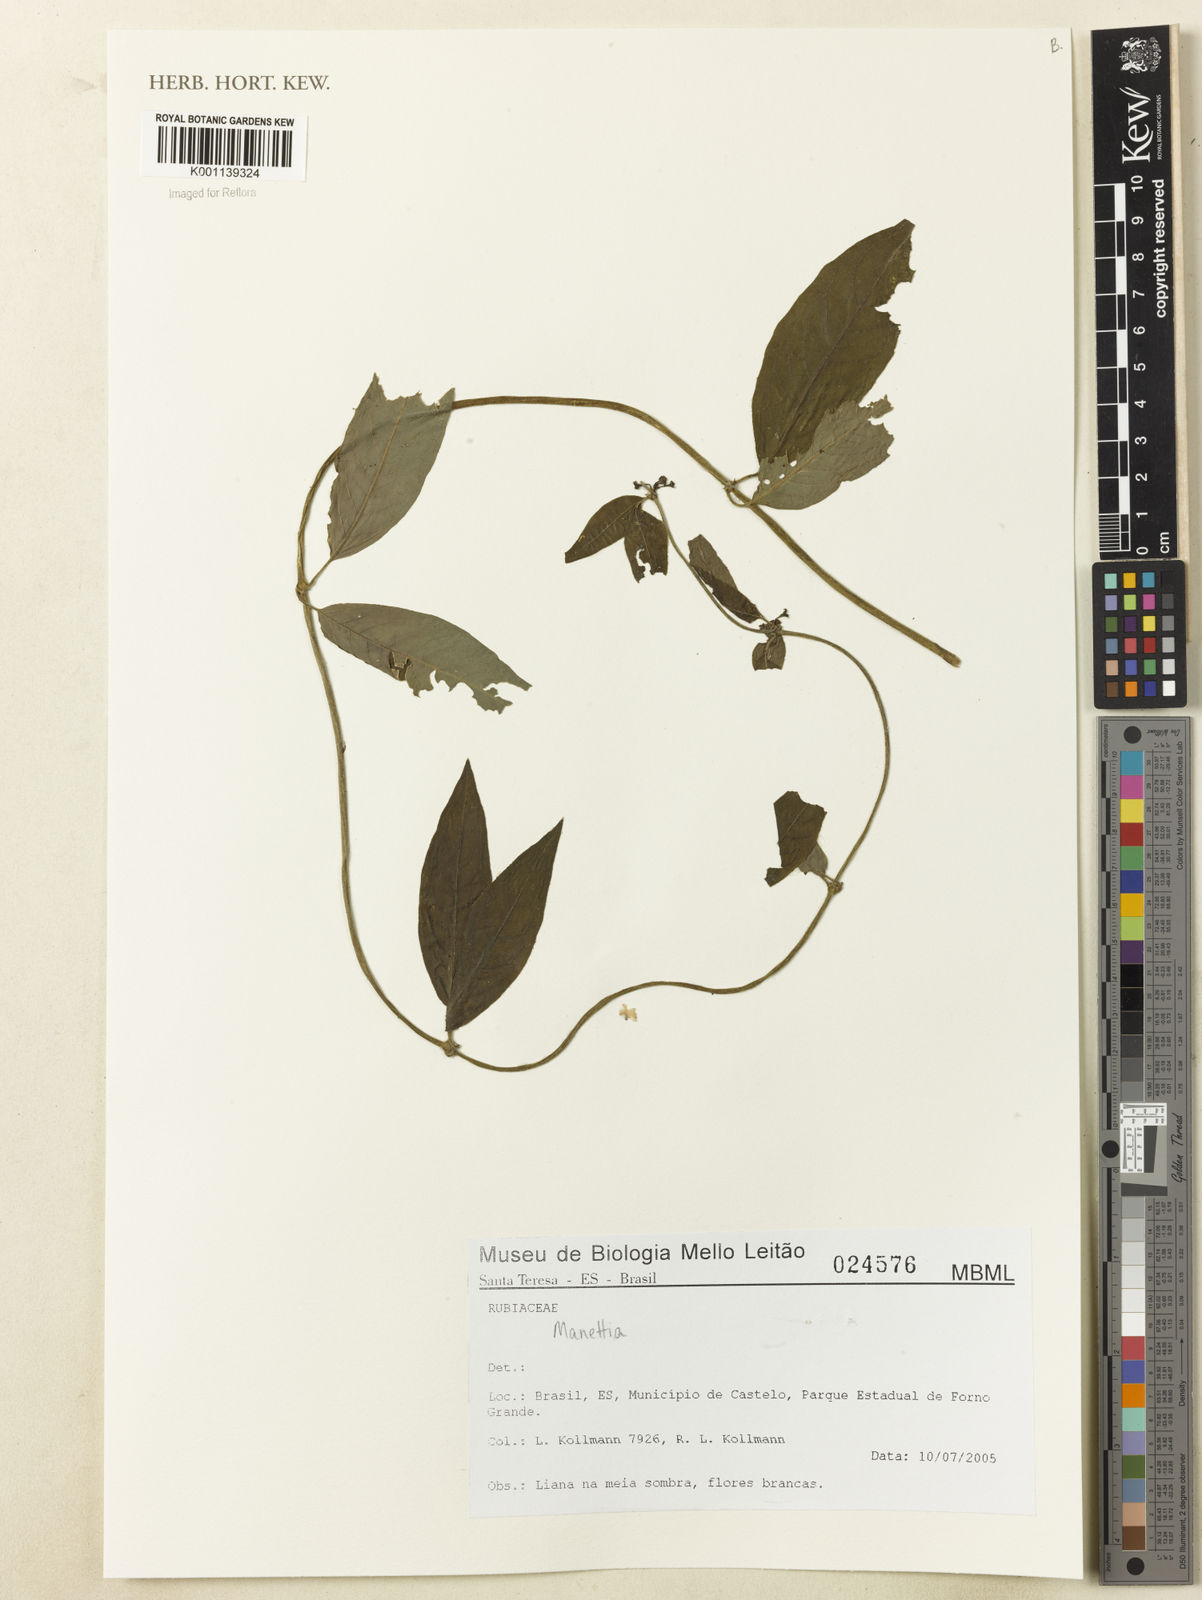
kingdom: Plantae
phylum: Tracheophyta
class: Magnoliopsida
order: Gentianales
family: Rubiaceae
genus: Manettia
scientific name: Manettia
